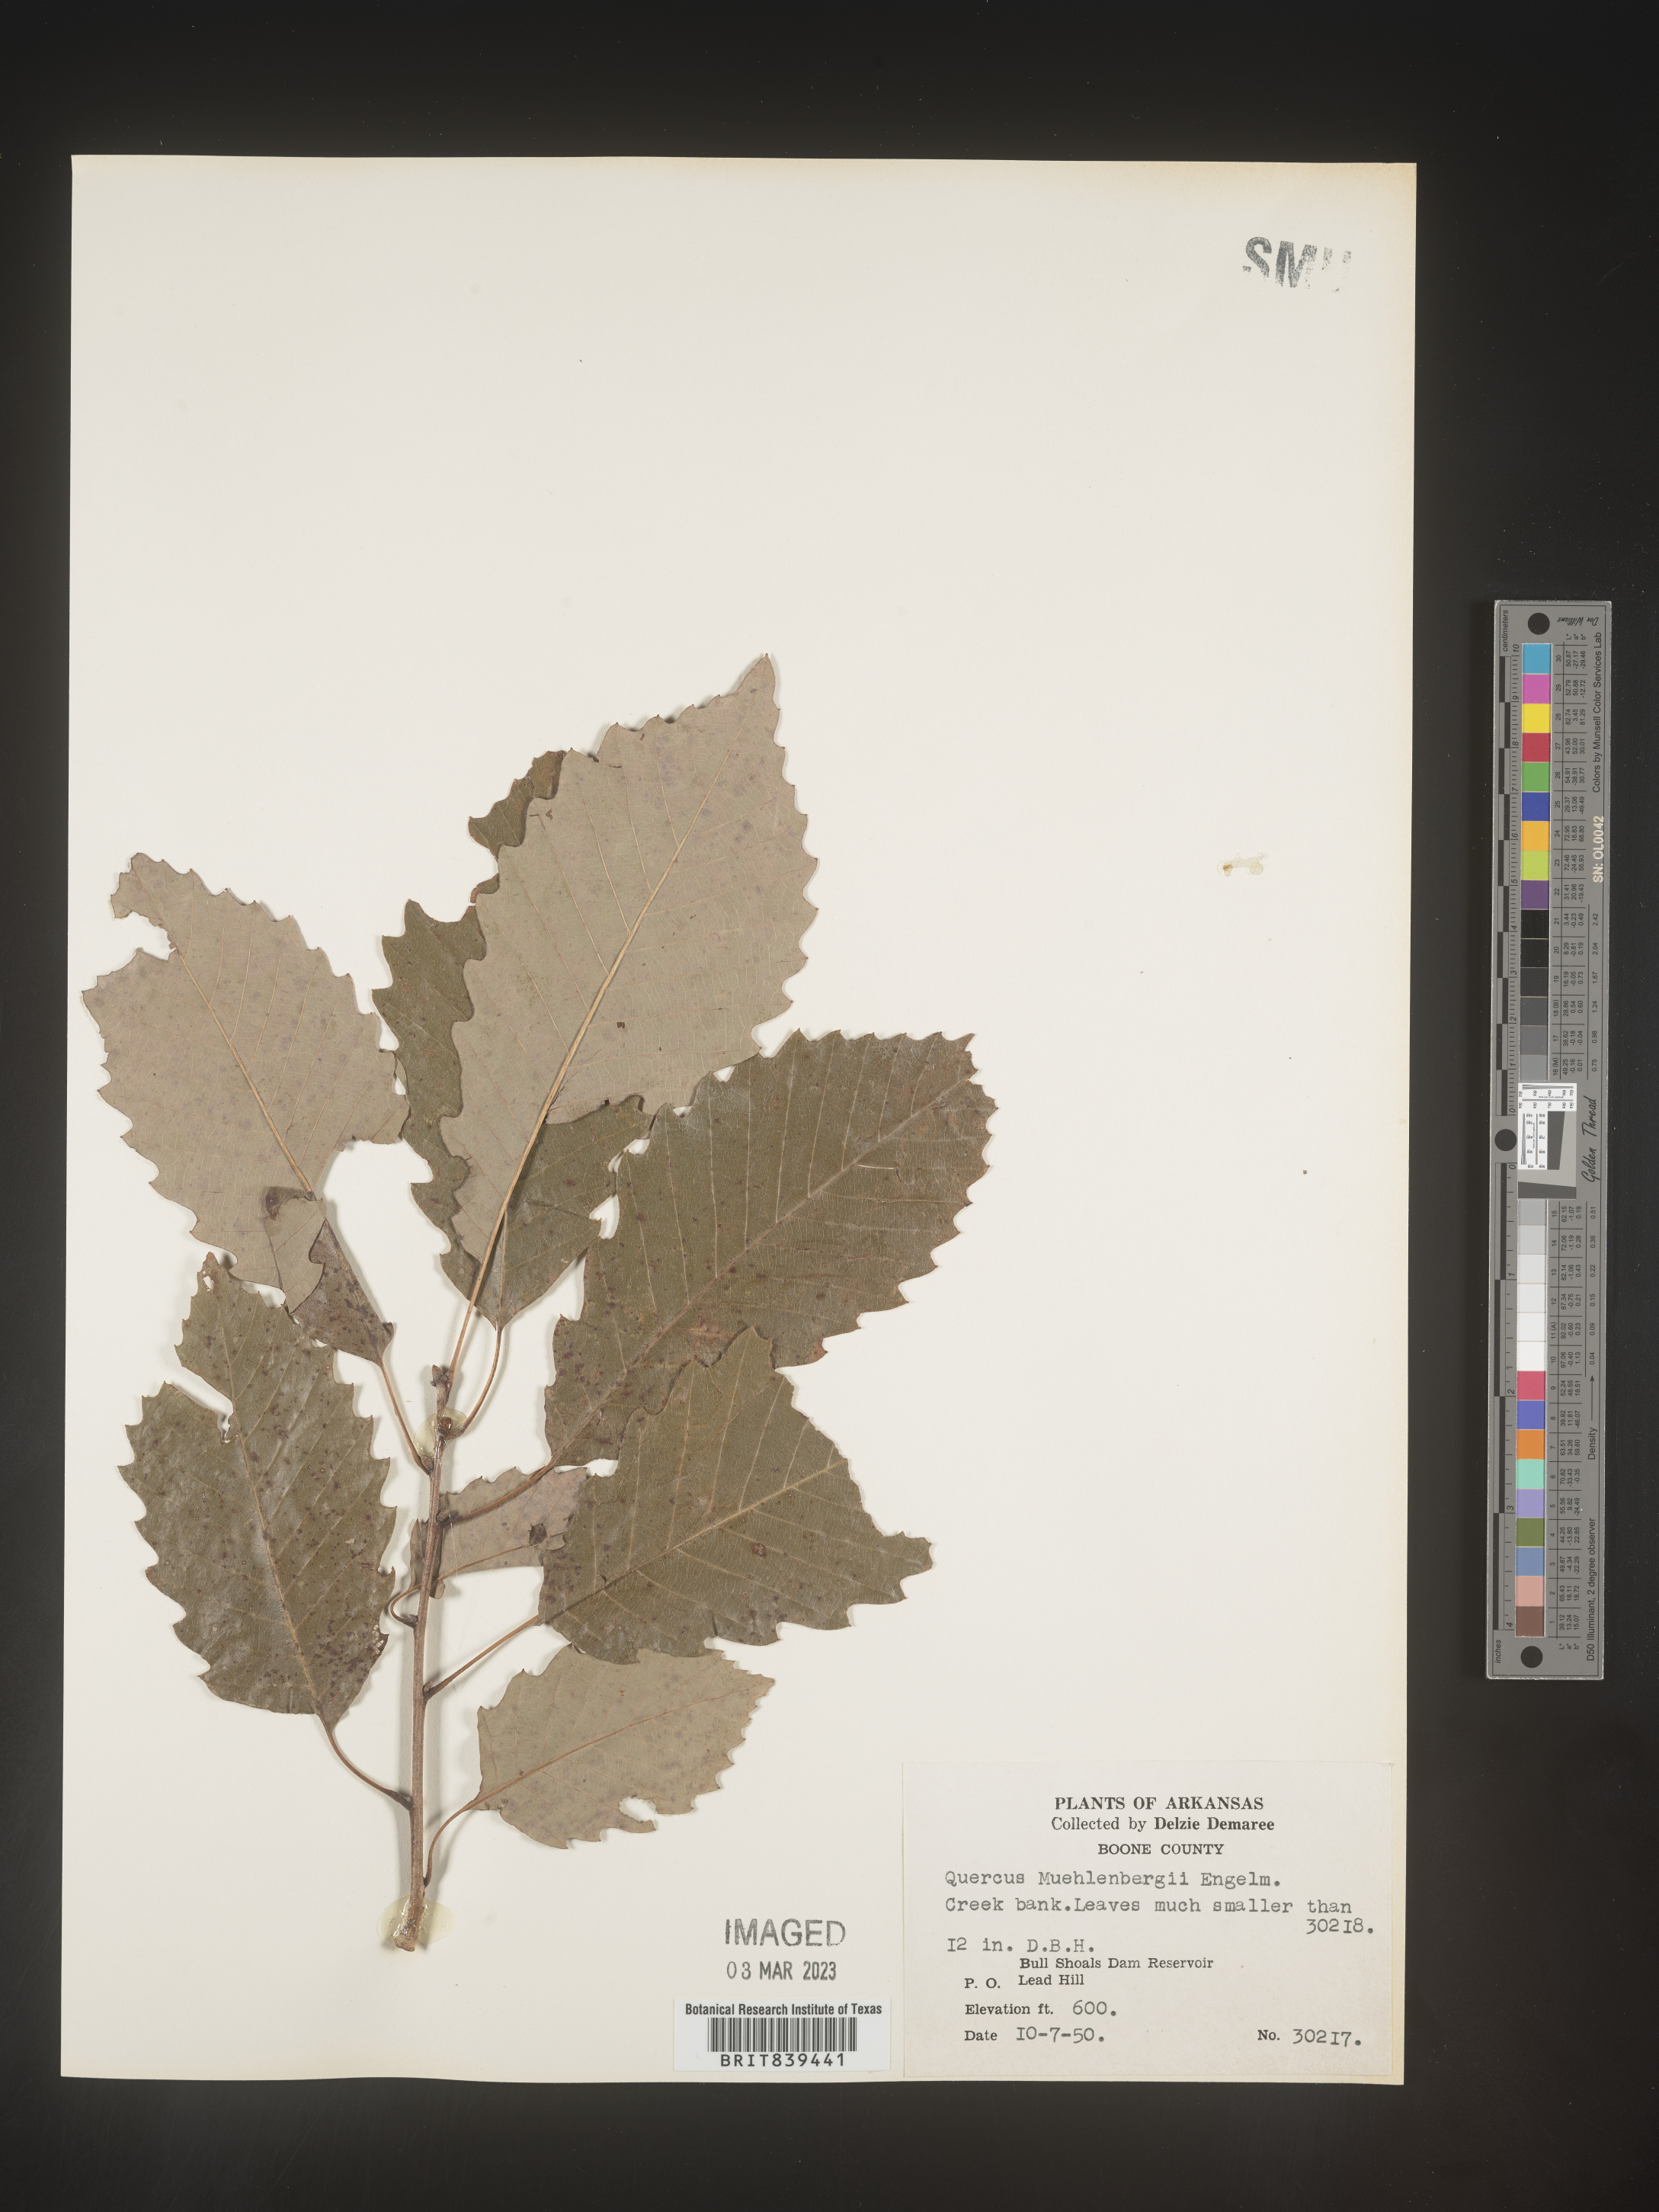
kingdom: Plantae
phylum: Tracheophyta
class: Magnoliopsida
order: Fagales
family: Fagaceae
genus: Quercus
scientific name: Quercus muehlenbergii
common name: Chinkapin oak
